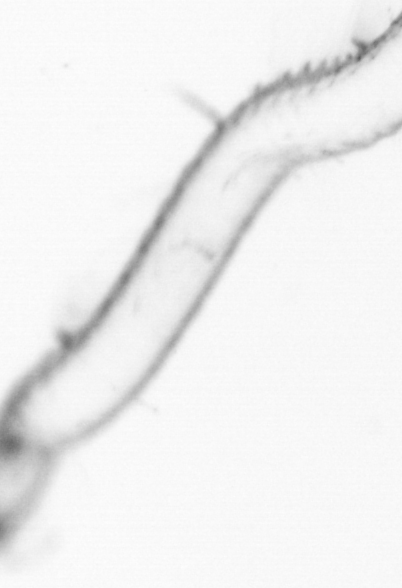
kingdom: Animalia
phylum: Arthropoda
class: Copepoda
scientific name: Copepoda
